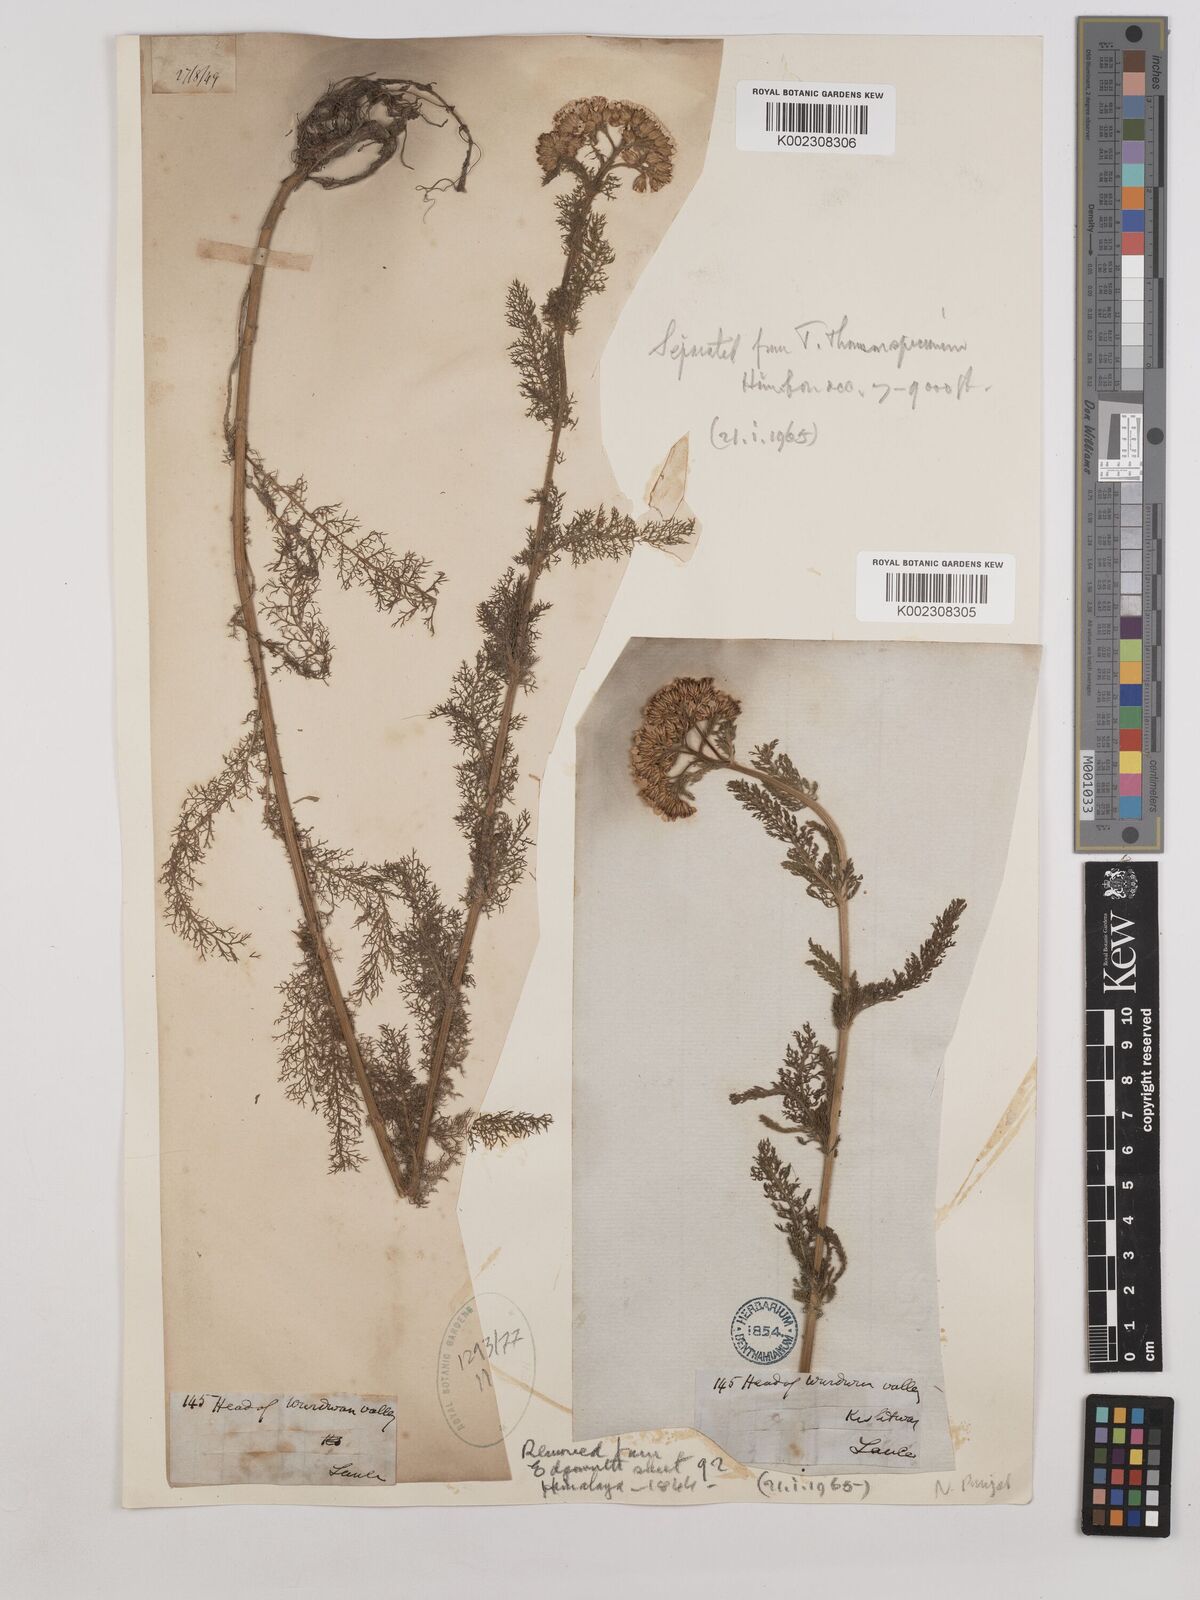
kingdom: Plantae
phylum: Tracheophyta
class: Magnoliopsida
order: Asterales
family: Asteraceae
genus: Achillea
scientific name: Achillea millefolium
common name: Yarrow
